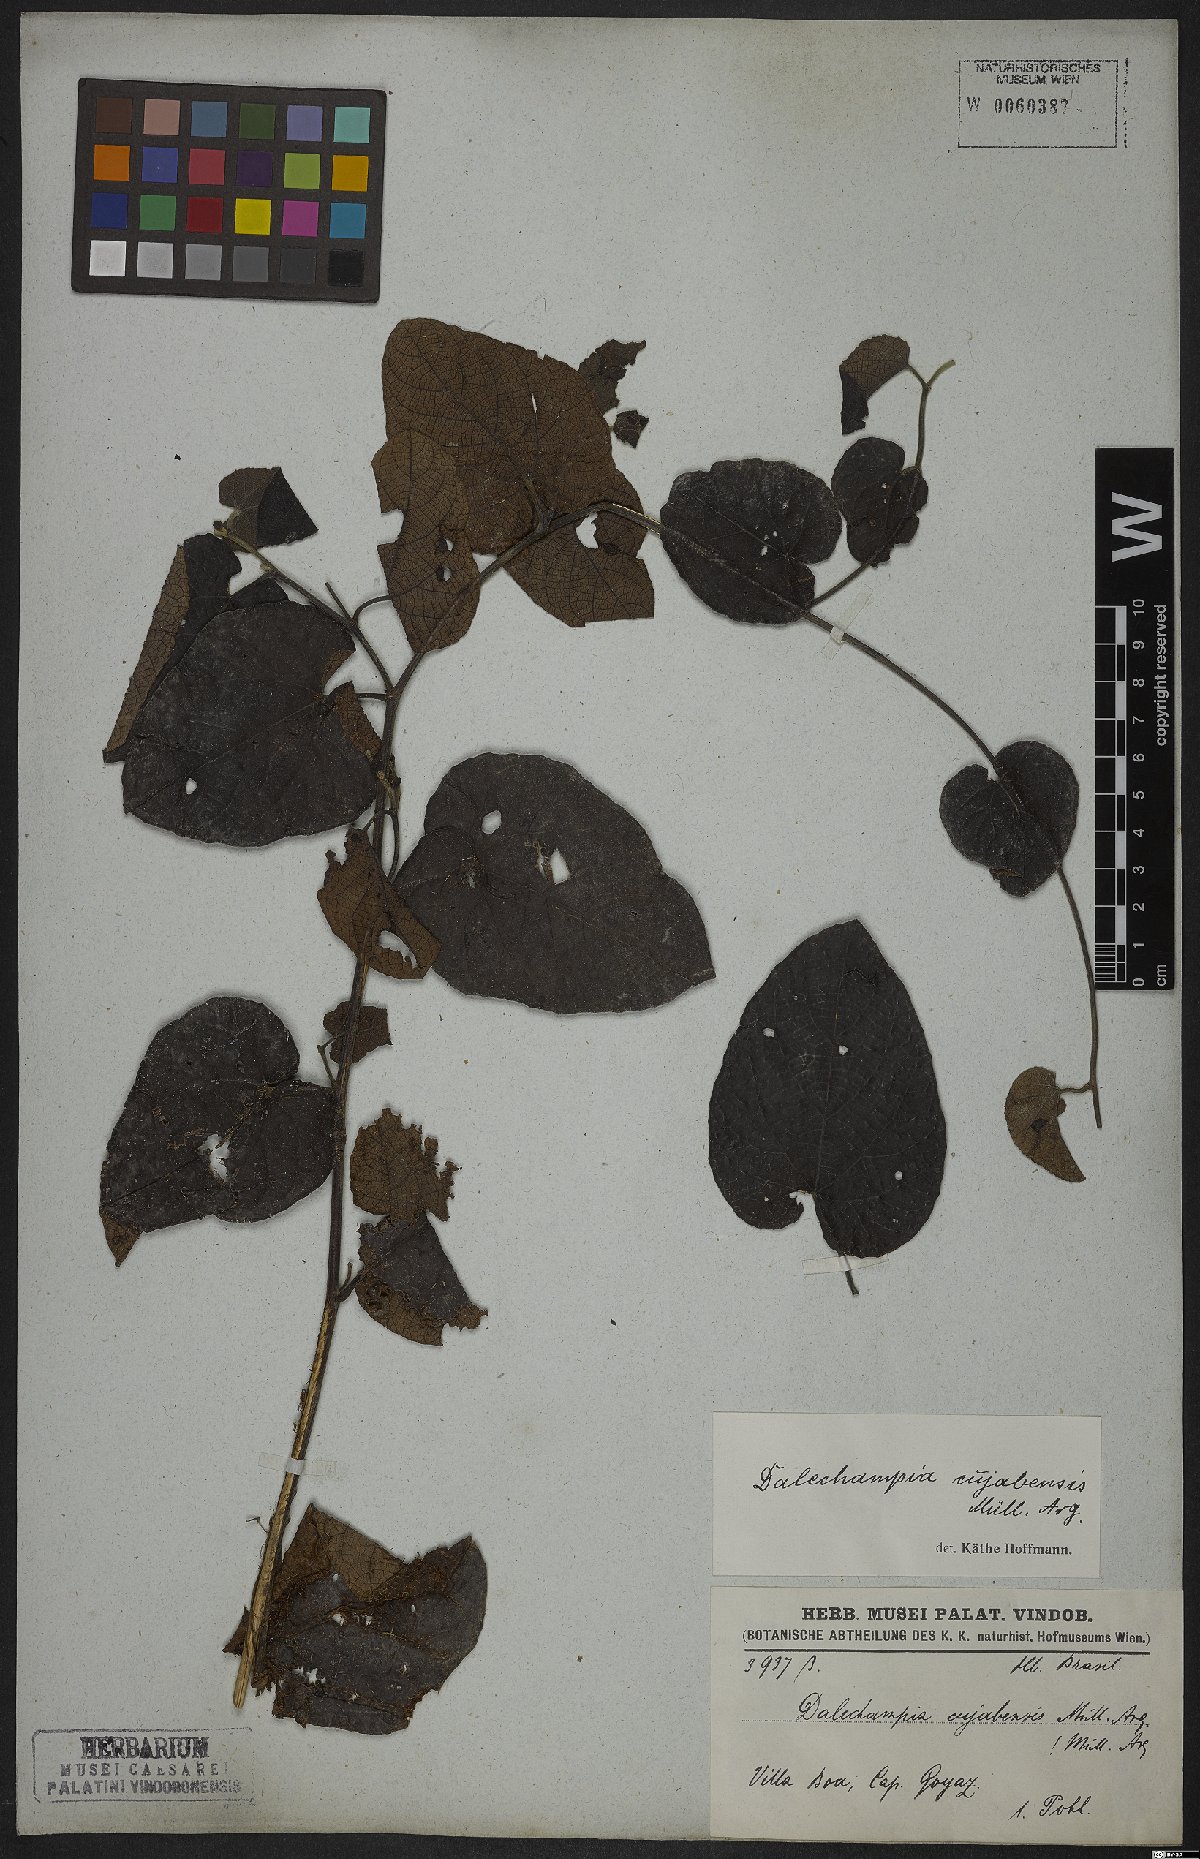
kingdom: Plantae
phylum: Tracheophyta
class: Magnoliopsida
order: Malpighiales
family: Euphorbiaceae
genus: Dalechampia
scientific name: Dalechampia cuyabensis
